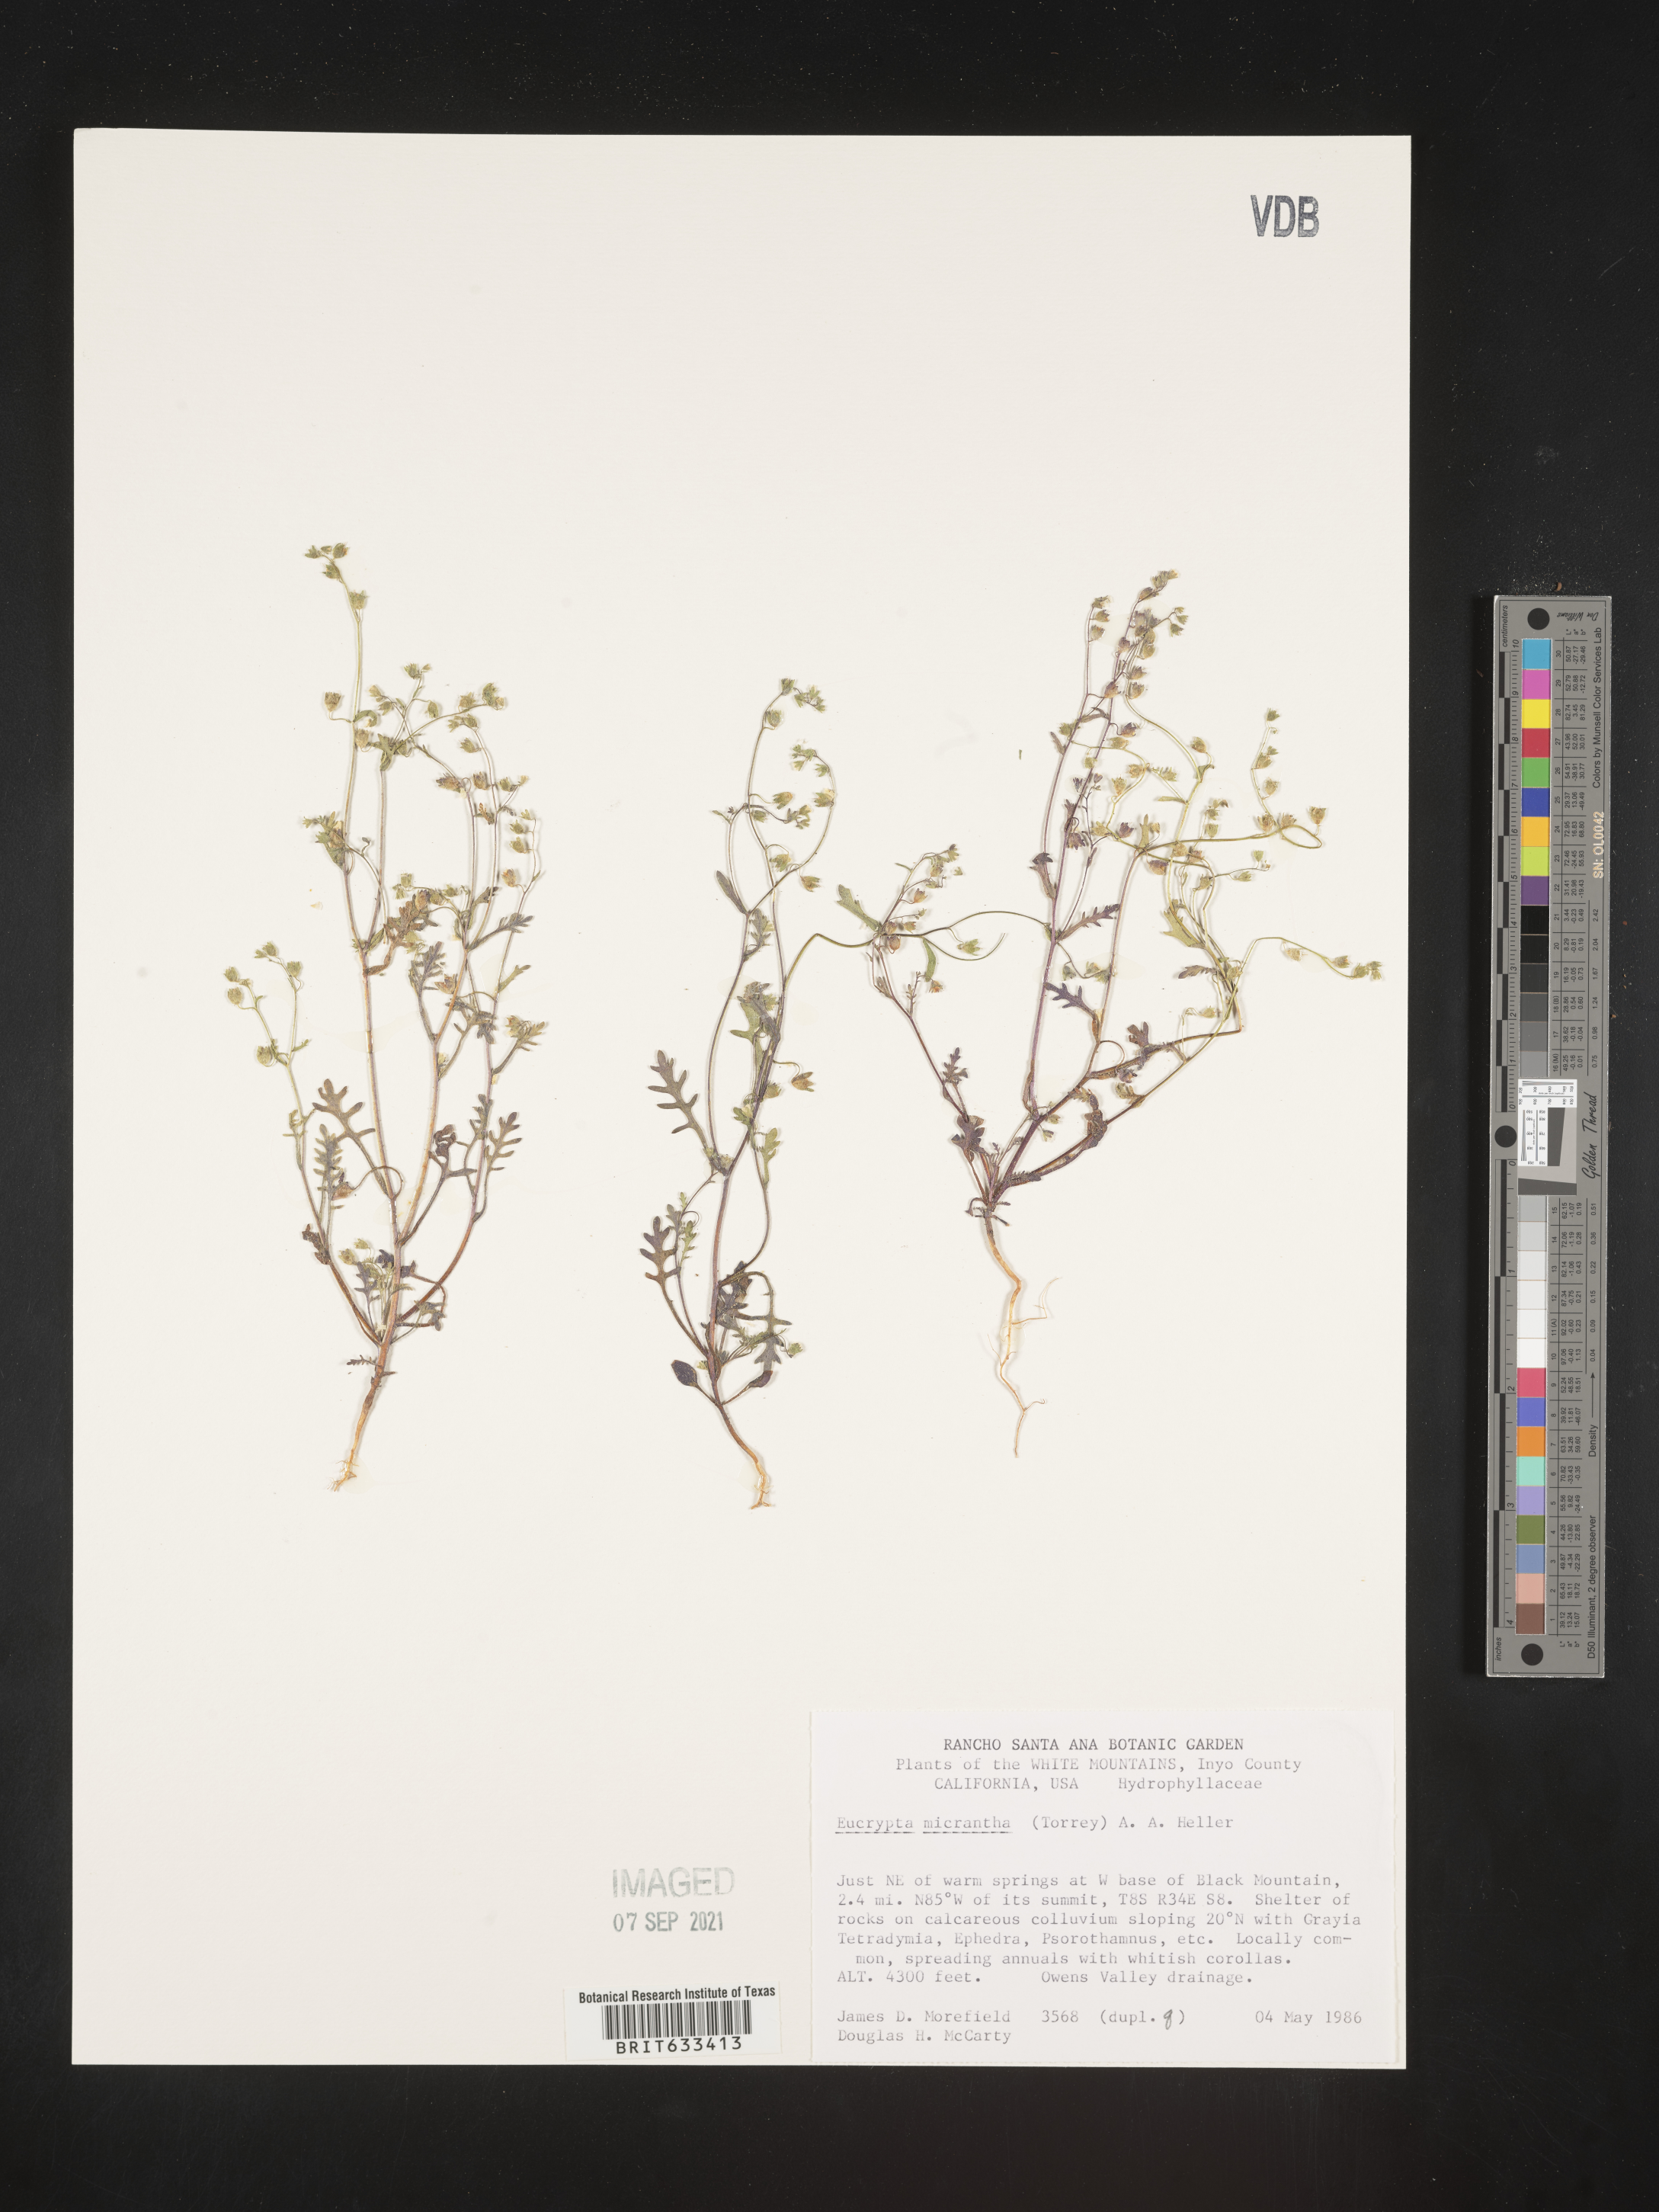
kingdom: Plantae
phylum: Tracheophyta
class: Magnoliopsida
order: Boraginales
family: Hydrophyllaceae
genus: Eucrypta
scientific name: Eucrypta micrantha
